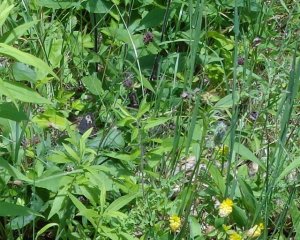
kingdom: Animalia
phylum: Arthropoda
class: Insecta
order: Lepidoptera
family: Nymphalidae
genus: Cercyonis
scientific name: Cercyonis pegala
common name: Common Wood-Nymph
